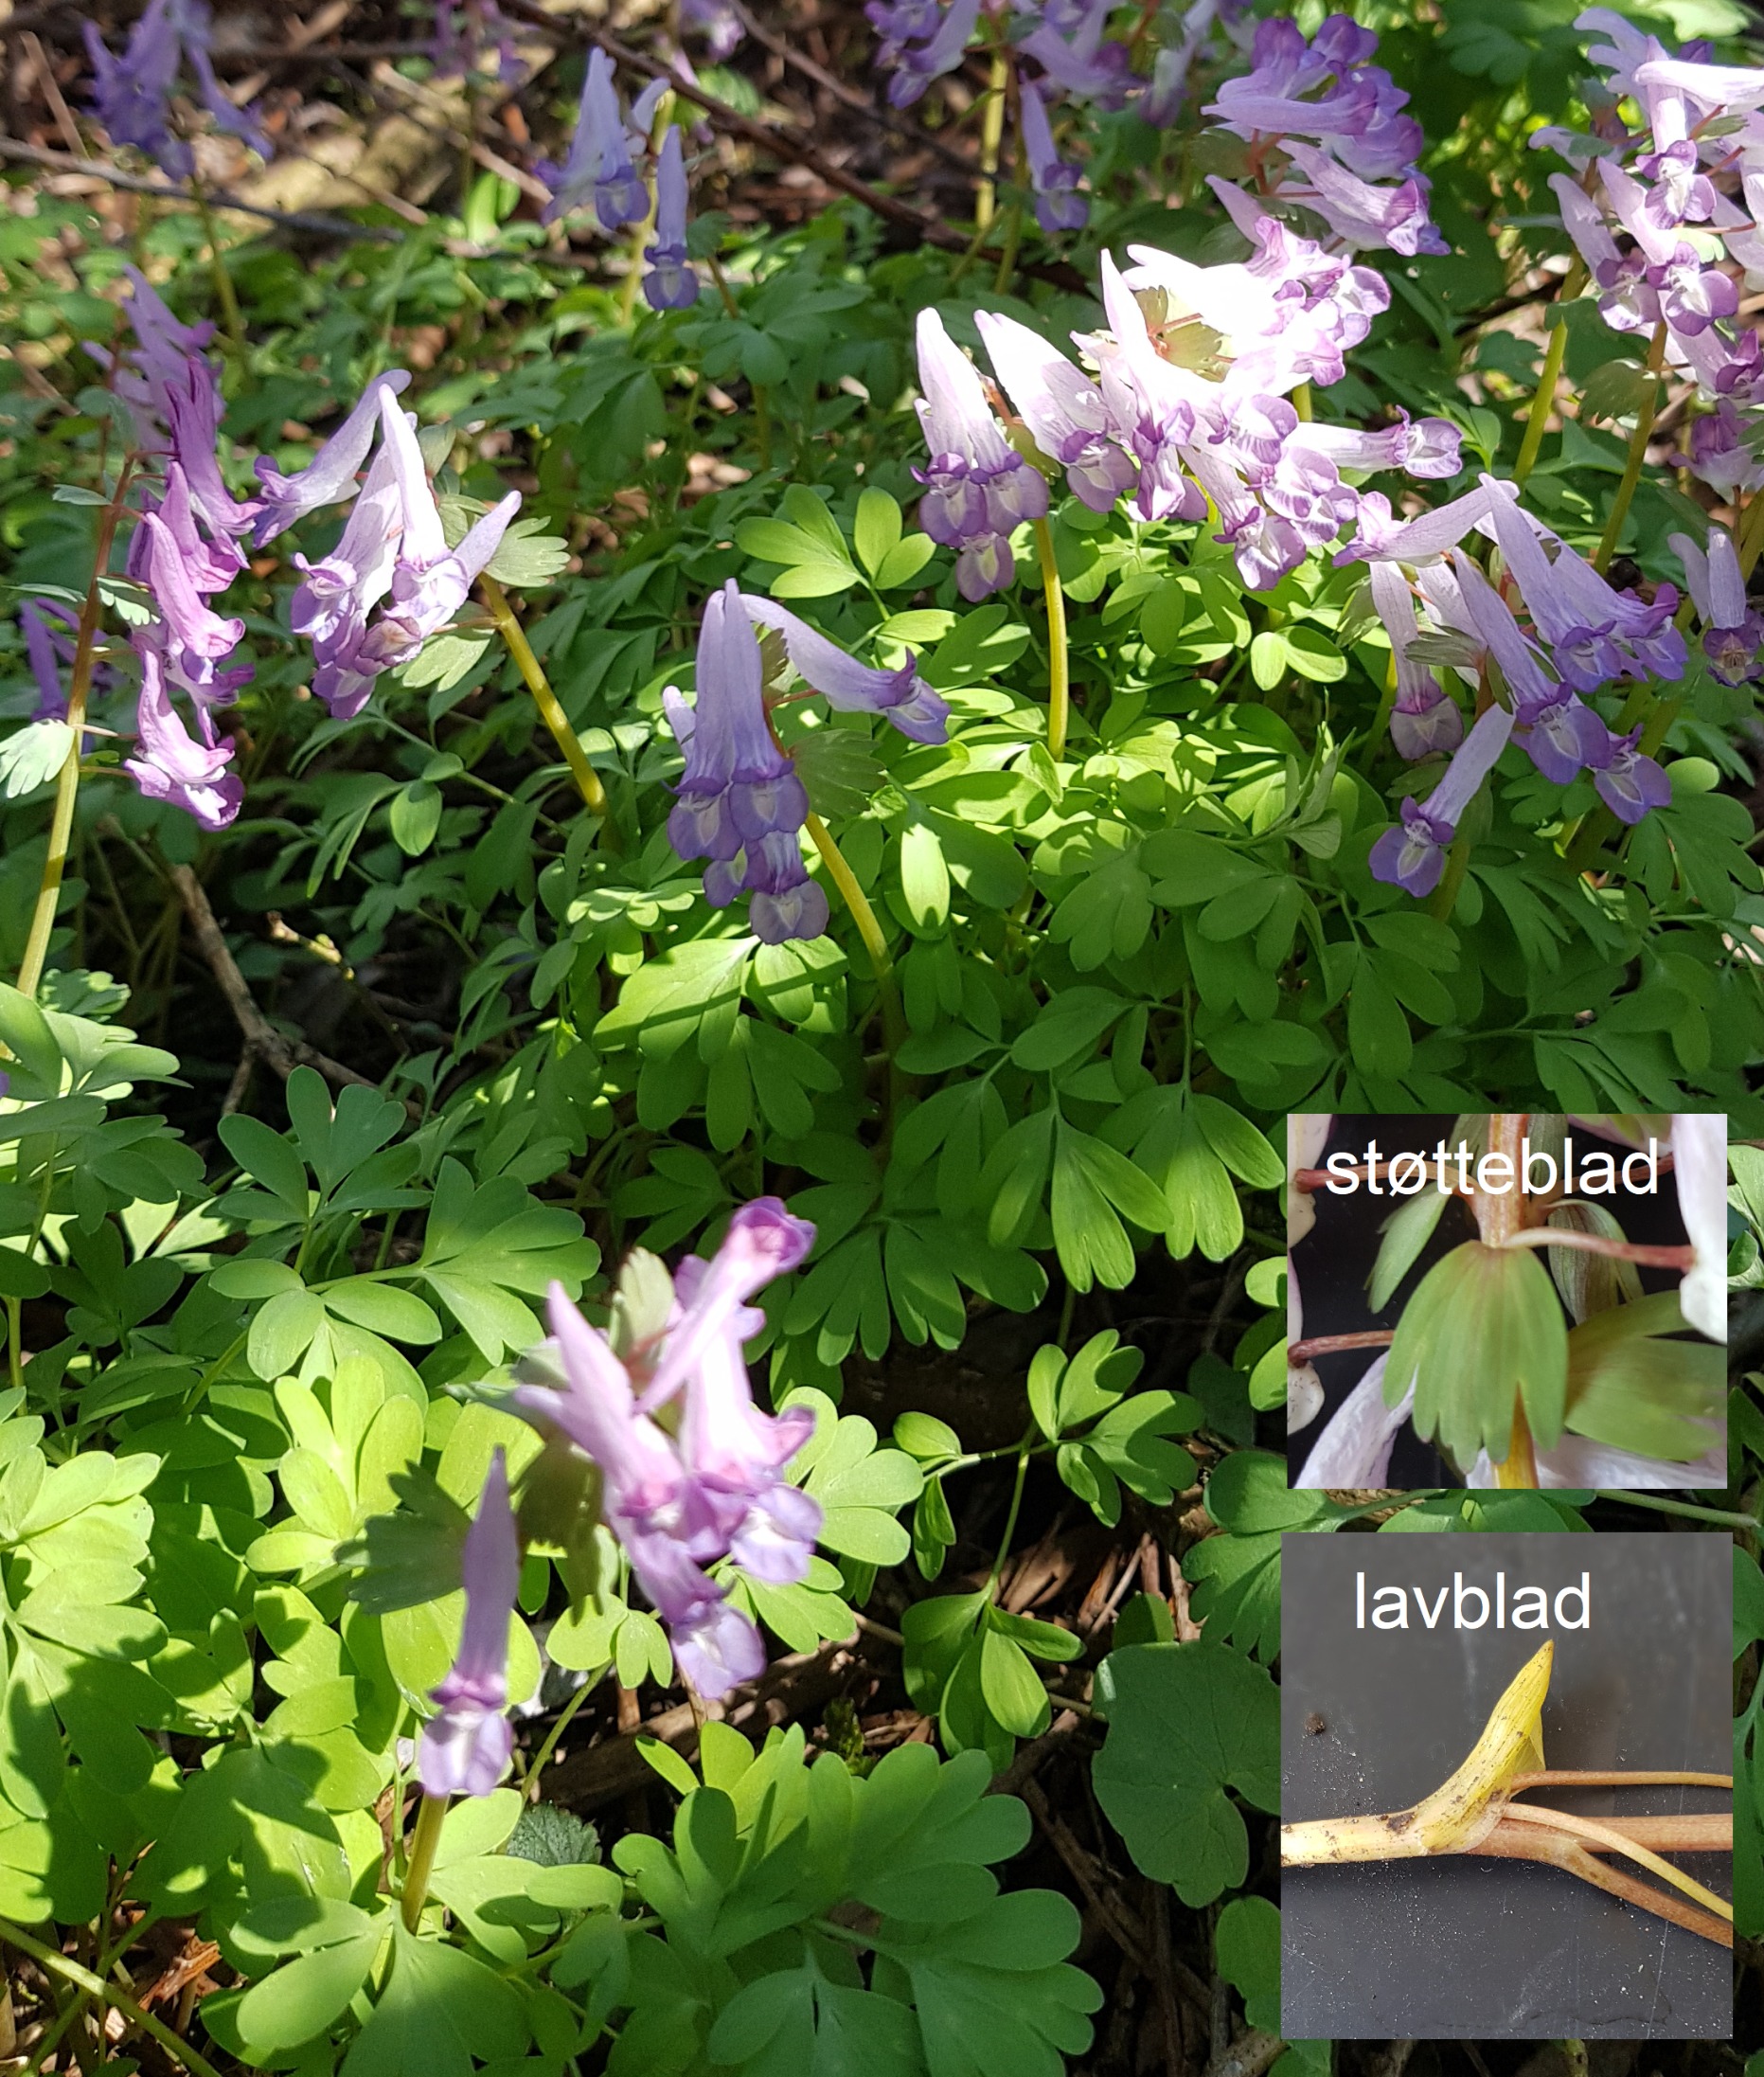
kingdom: Plantae
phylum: Tracheophyta
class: Magnoliopsida
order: Ranunculales
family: Papaveraceae
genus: Corydalis
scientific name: Corydalis solida
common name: Langstilket lærkespore
